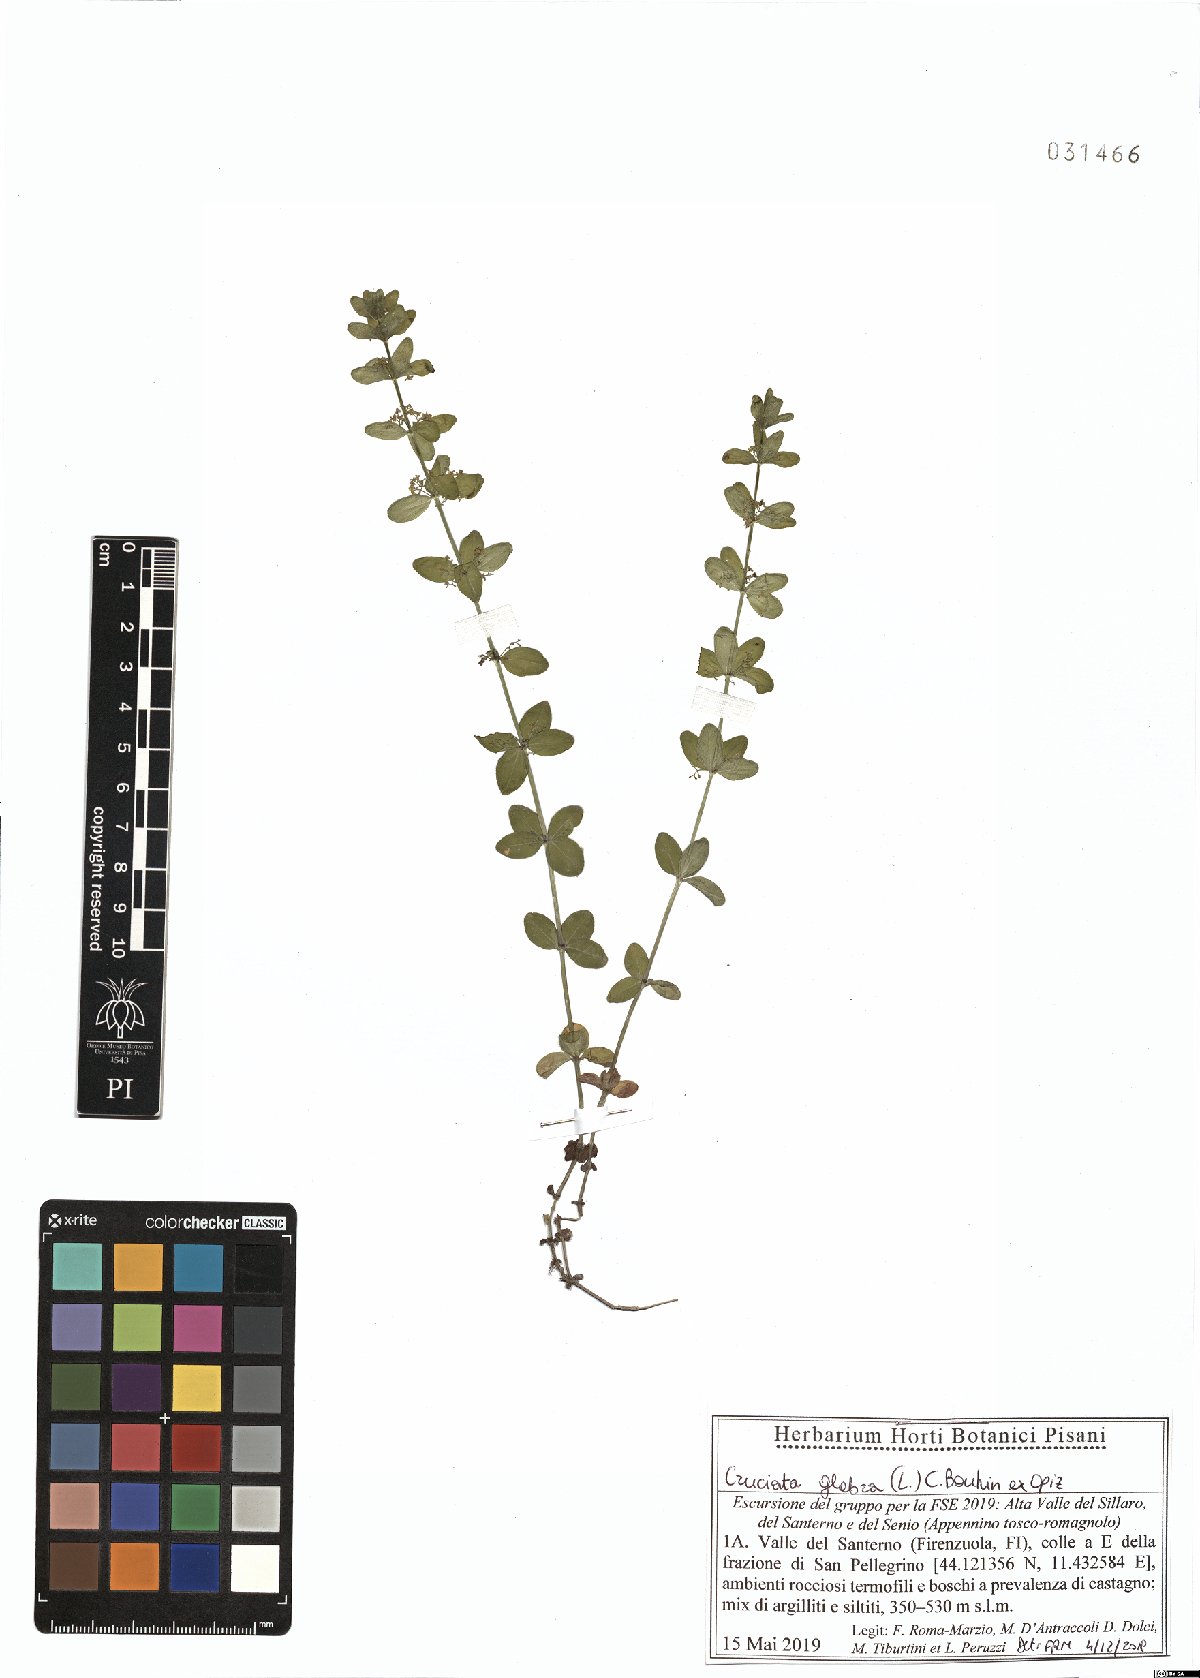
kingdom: Plantae
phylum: Tracheophyta
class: Magnoliopsida
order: Gentianales
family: Rubiaceae
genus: Cruciata
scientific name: Cruciata glabra
